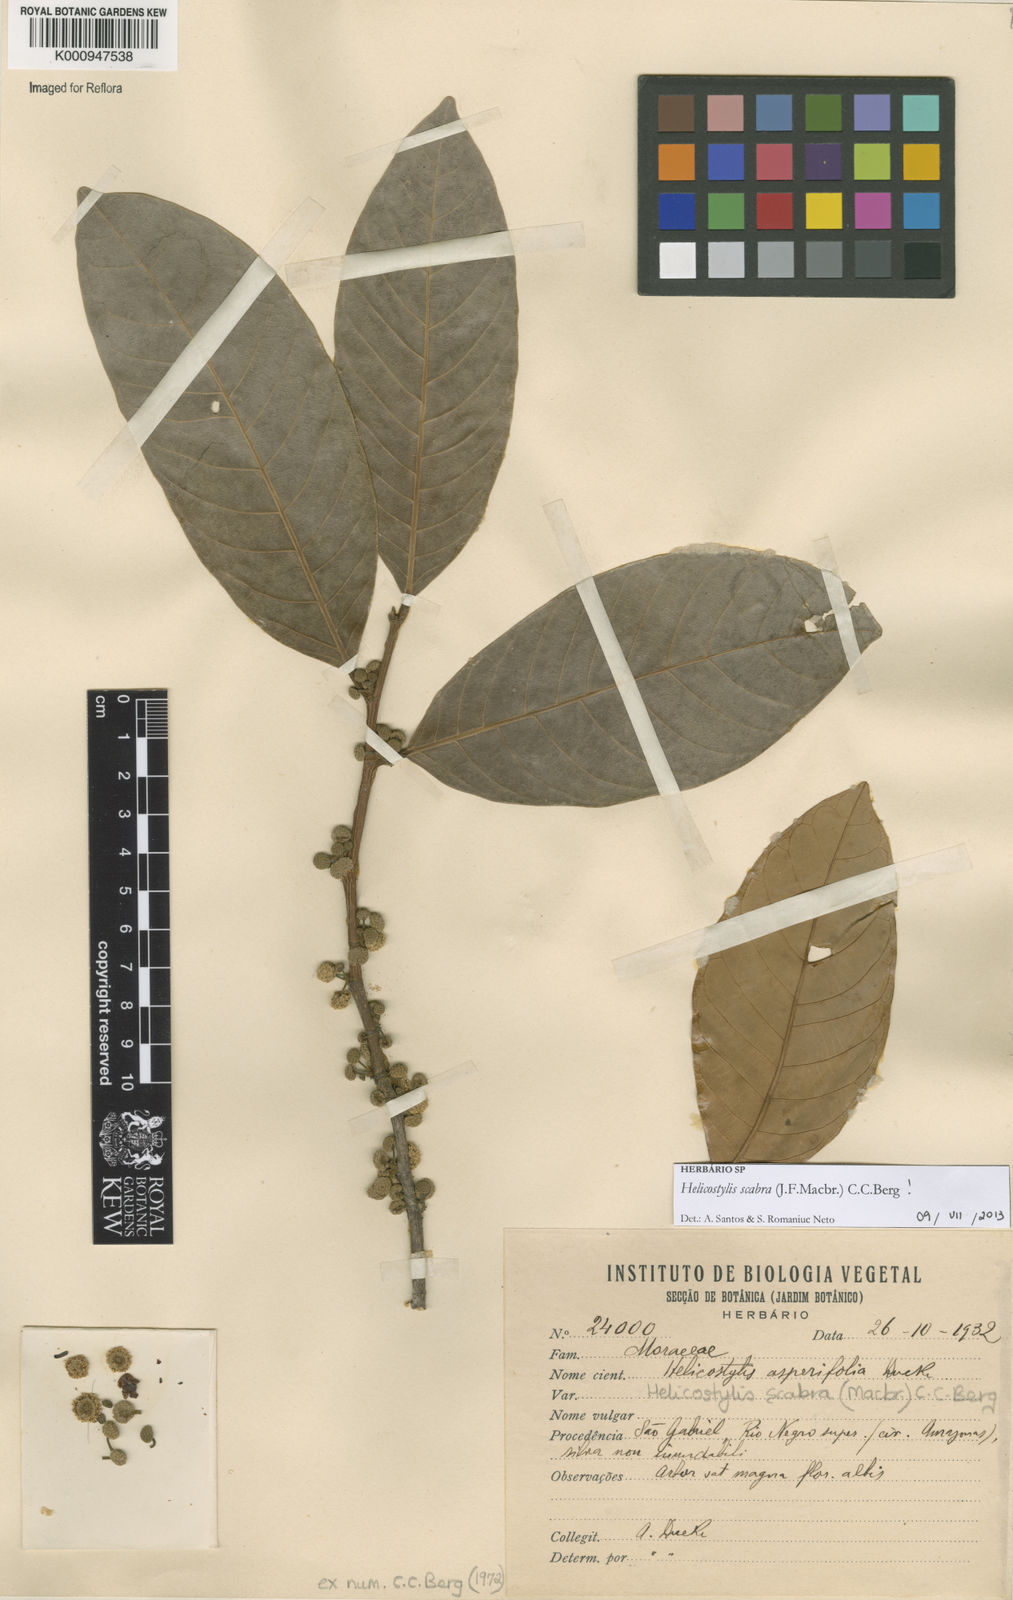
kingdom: Plantae
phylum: Tracheophyta
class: Magnoliopsida
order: Rosales
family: Moraceae
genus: Helicostylis
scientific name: Helicostylis scabra
